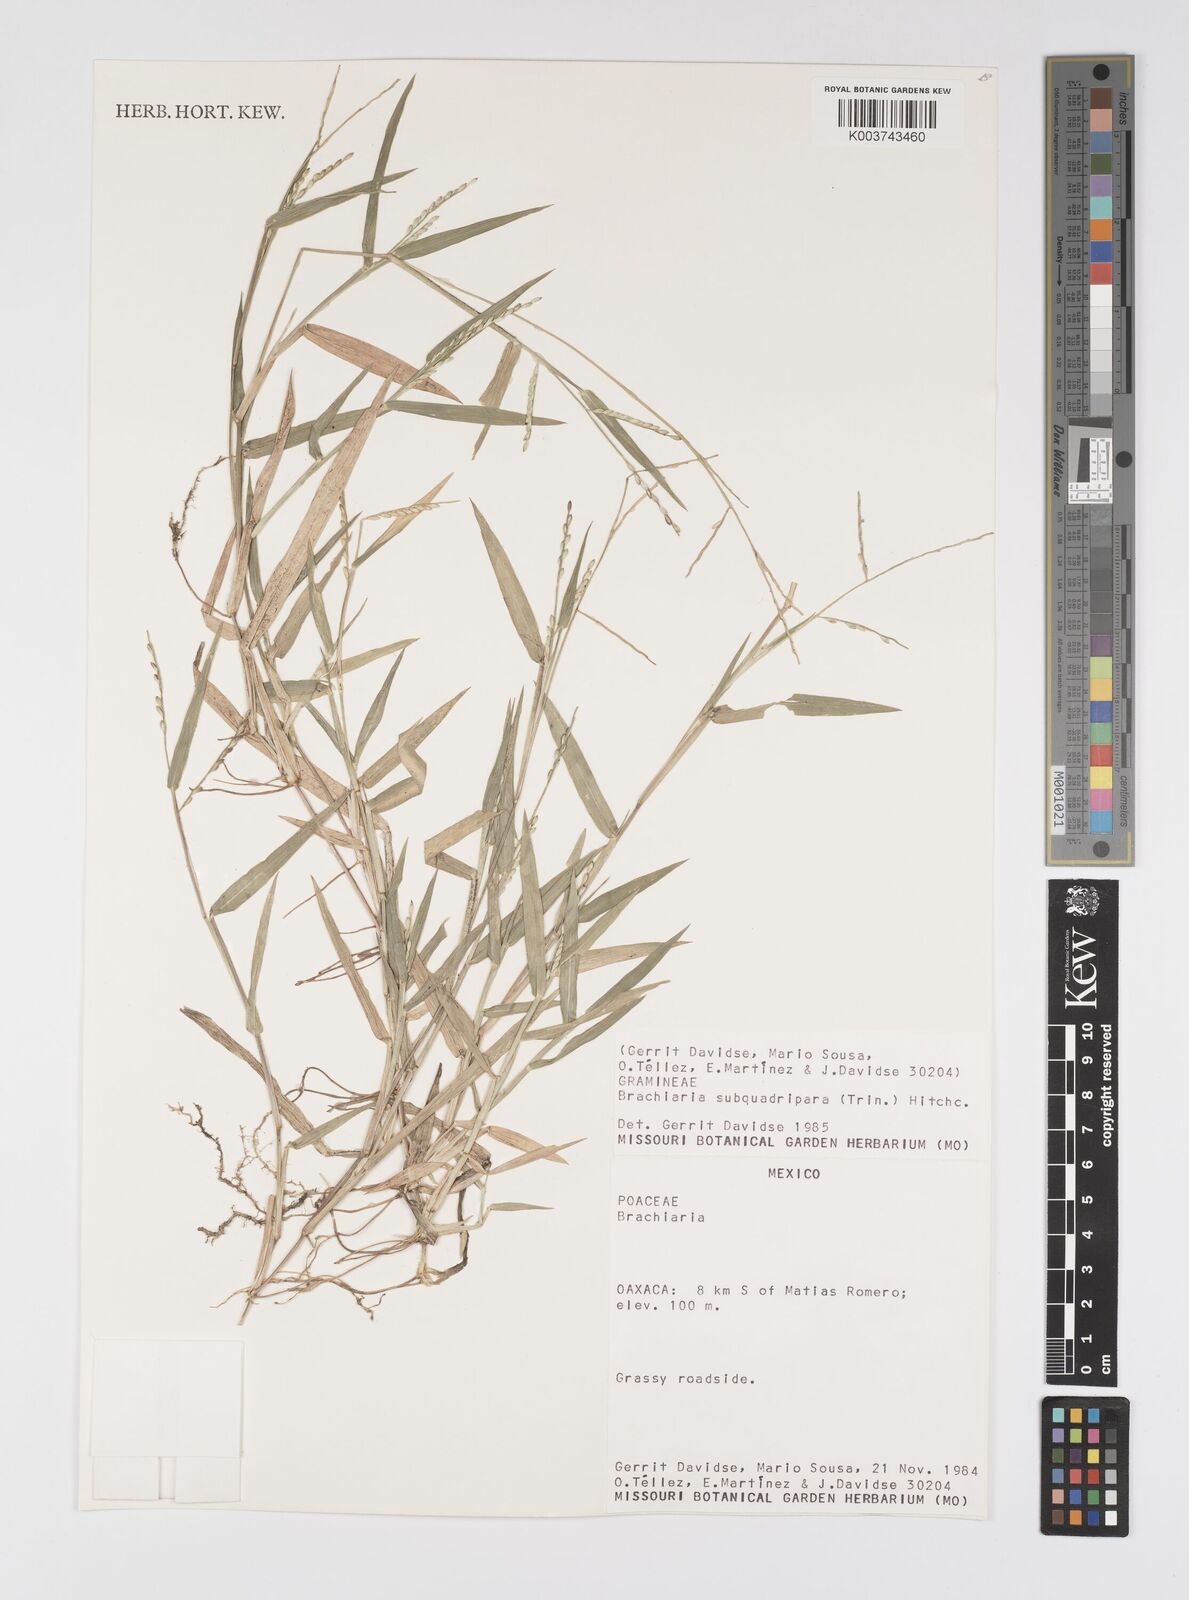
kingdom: Plantae
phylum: Tracheophyta
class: Liliopsida
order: Poales
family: Poaceae
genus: Urochloa
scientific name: Urochloa subquadripara
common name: Armgrass millet
